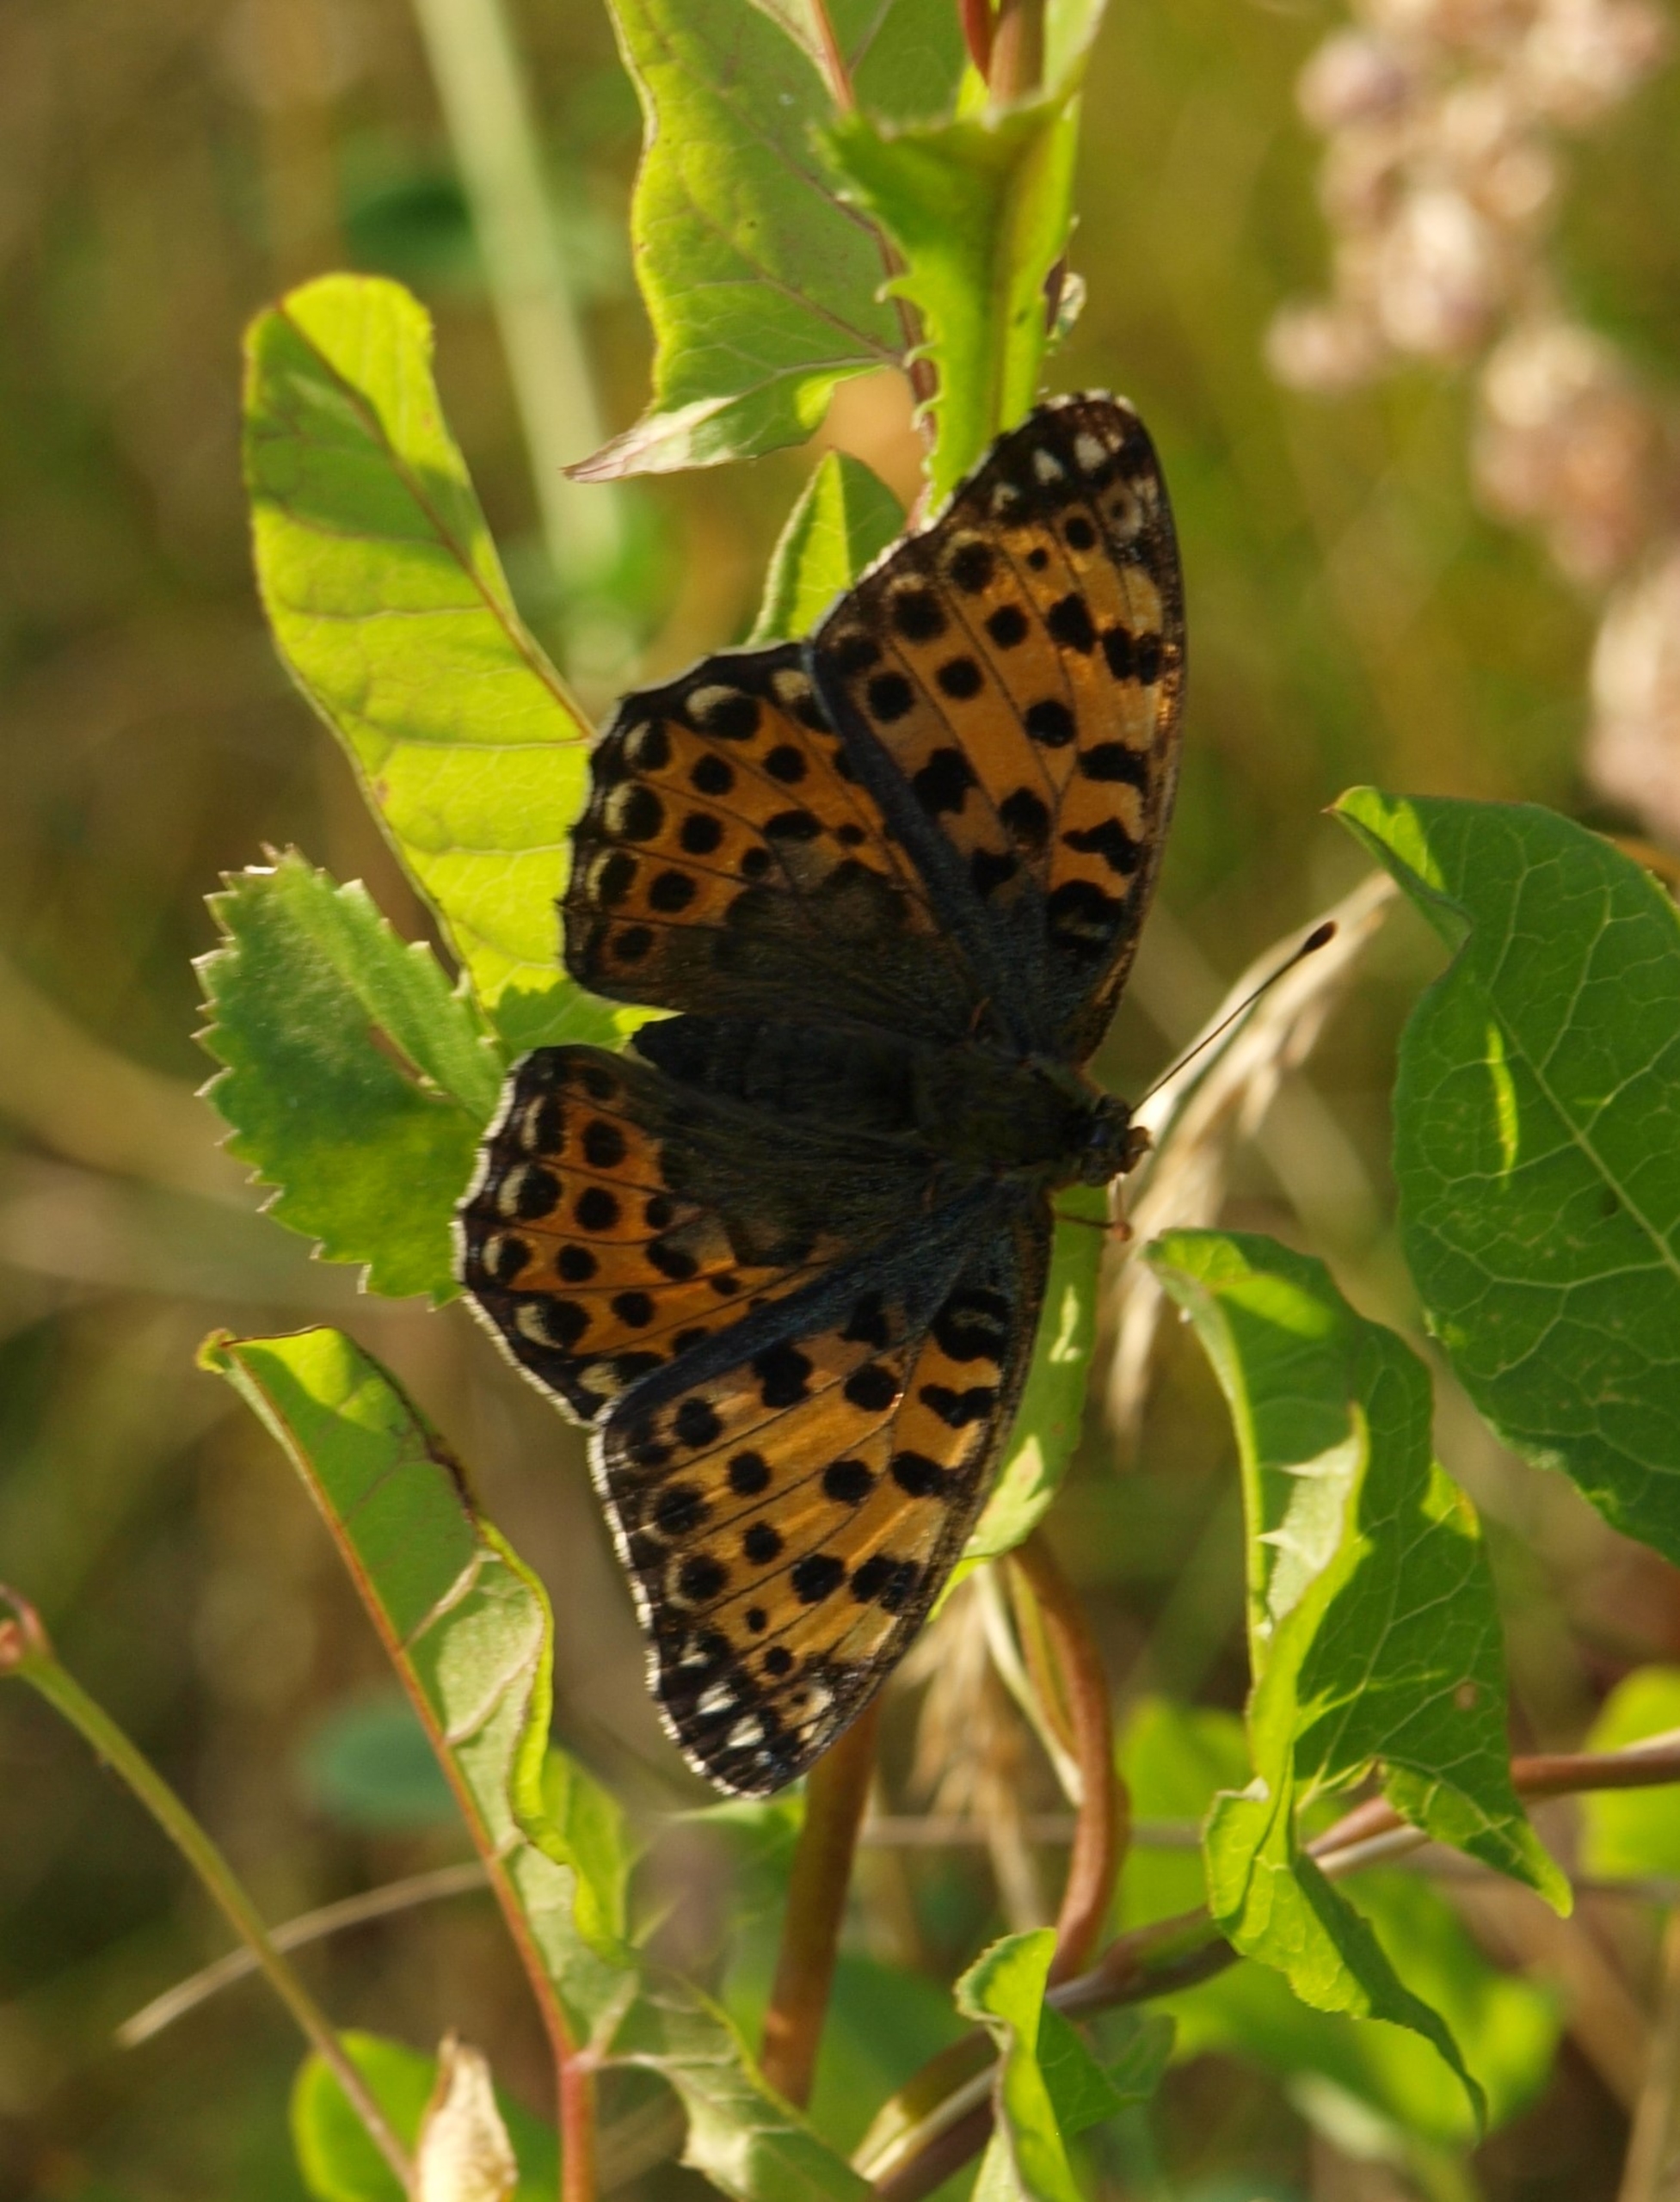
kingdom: Animalia
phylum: Arthropoda
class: Insecta
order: Lepidoptera
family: Nymphalidae
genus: Issoria
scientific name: Issoria lathonia
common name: Storplettet perlemorsommerfugl
